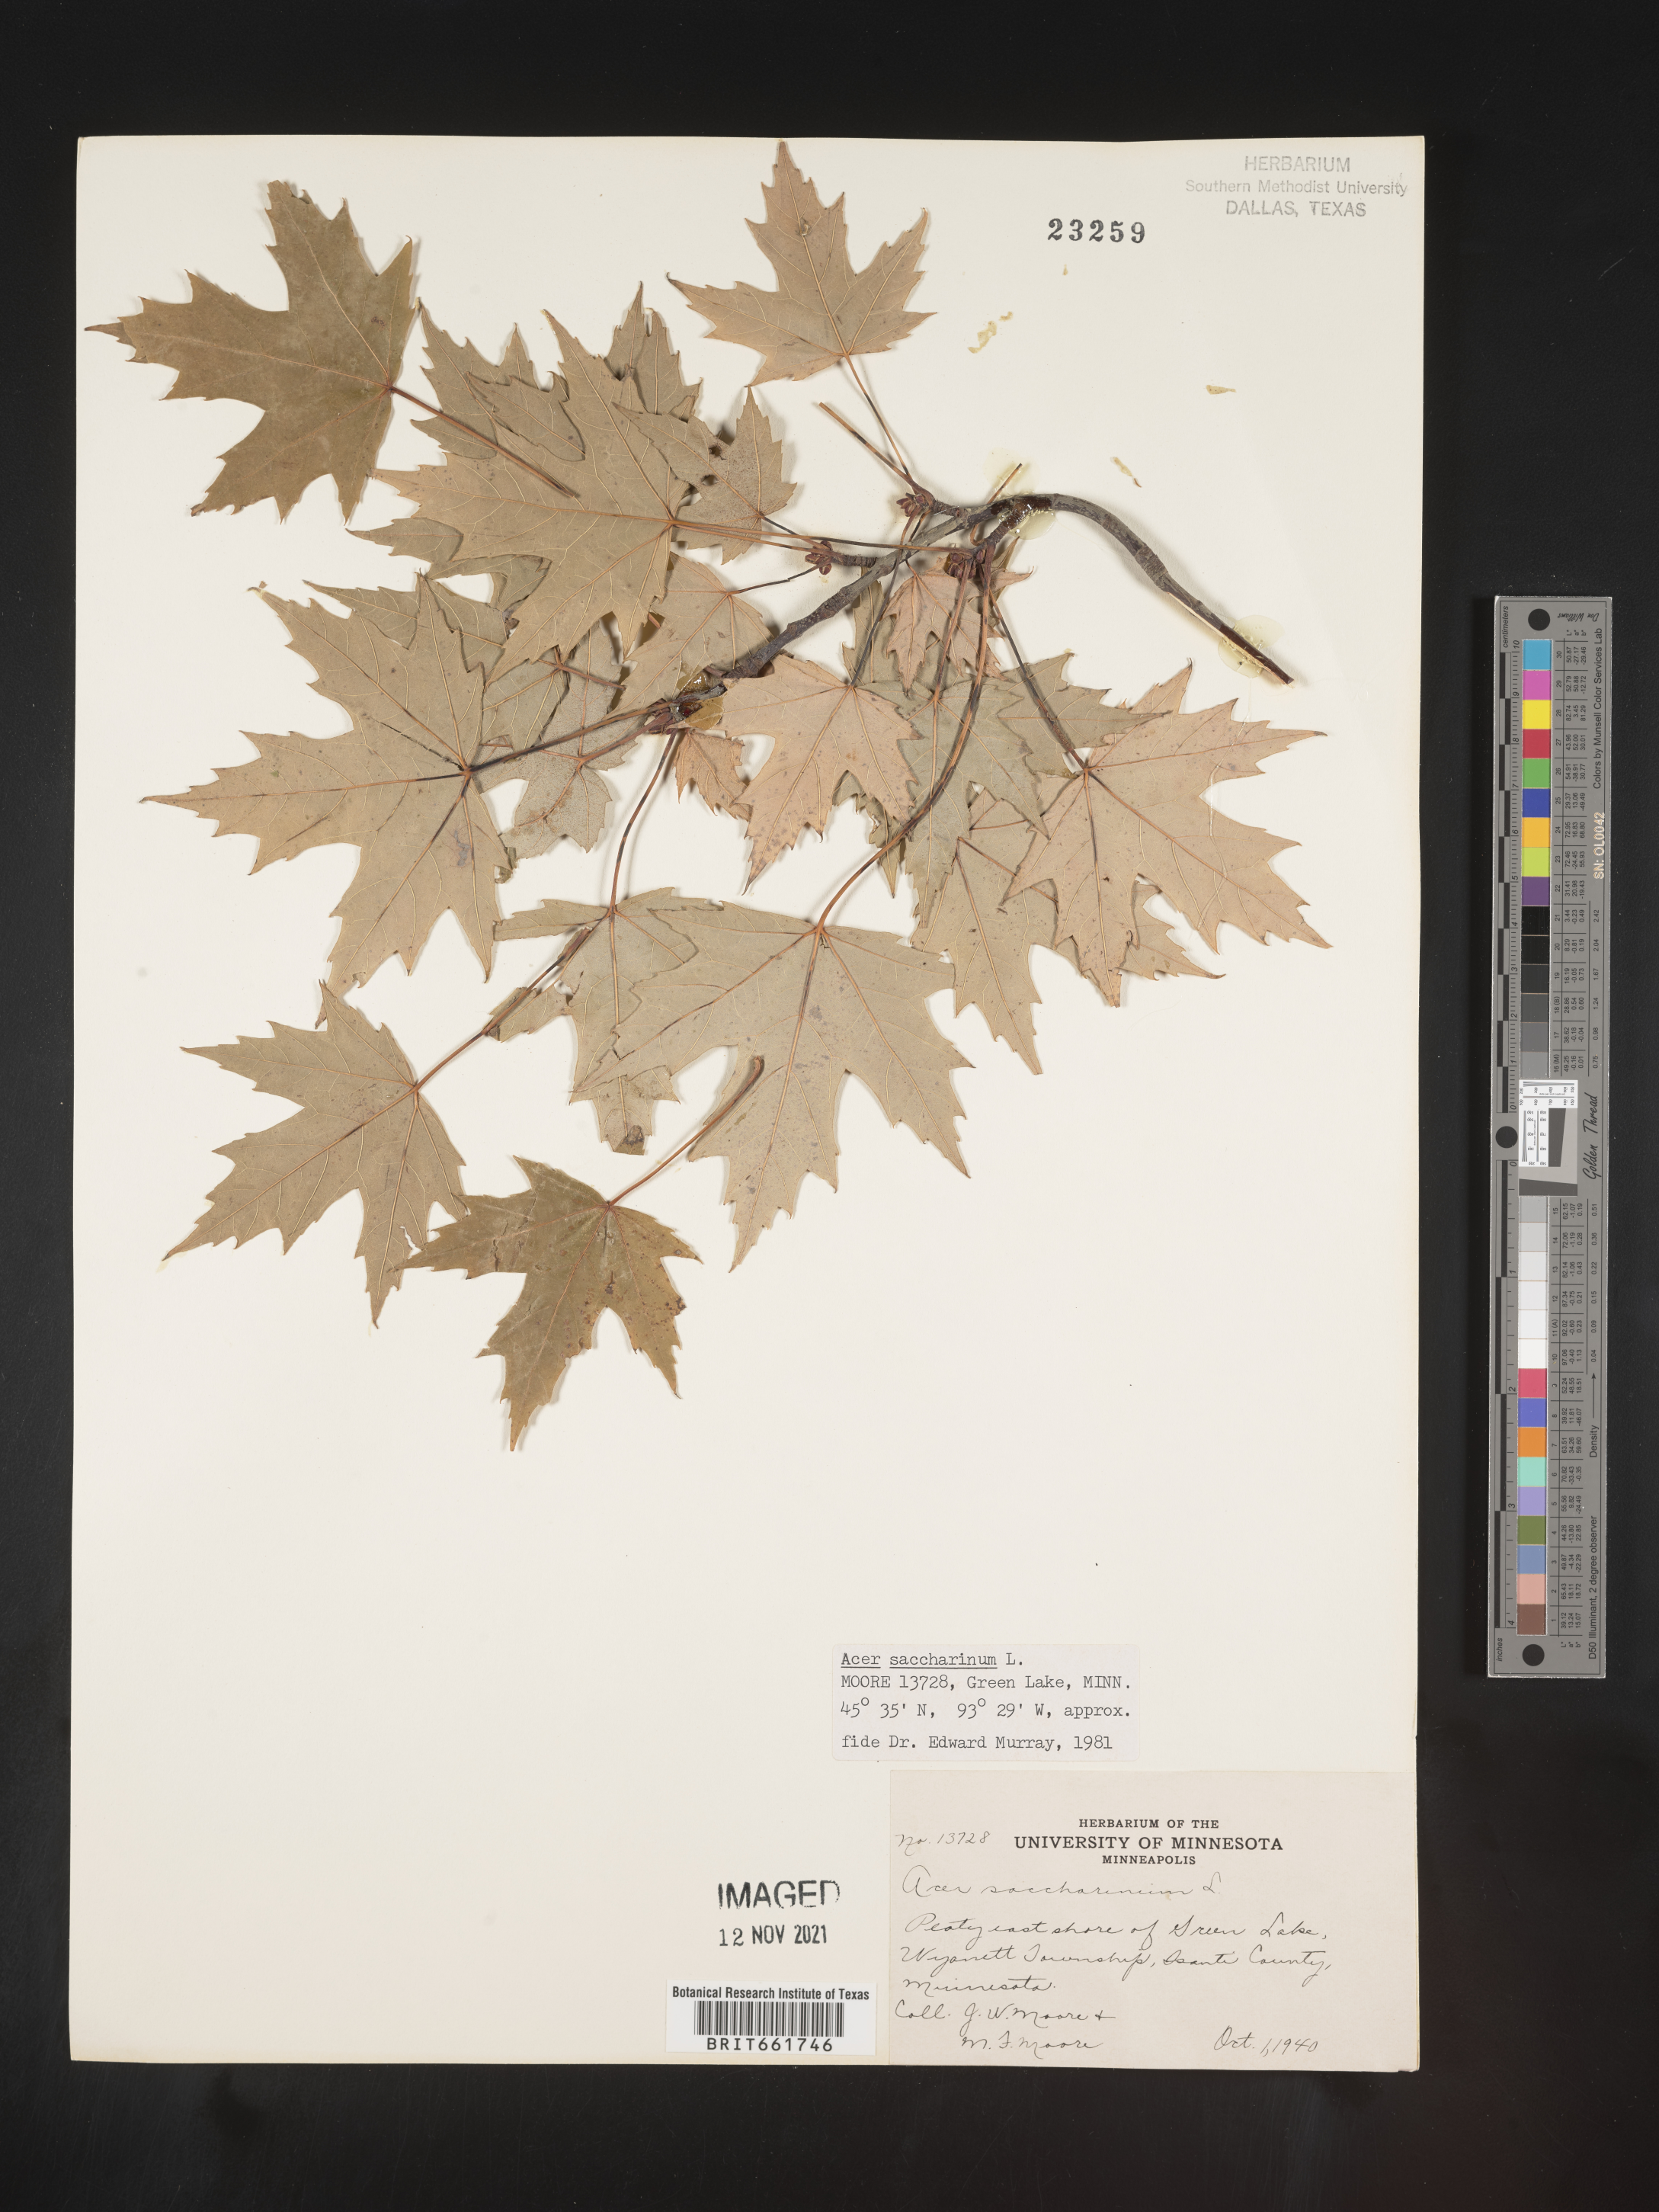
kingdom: Plantae
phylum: Tracheophyta
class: Magnoliopsida
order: Sapindales
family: Sapindaceae
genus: Acer
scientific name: Acer saccharinum
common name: Silver maple
